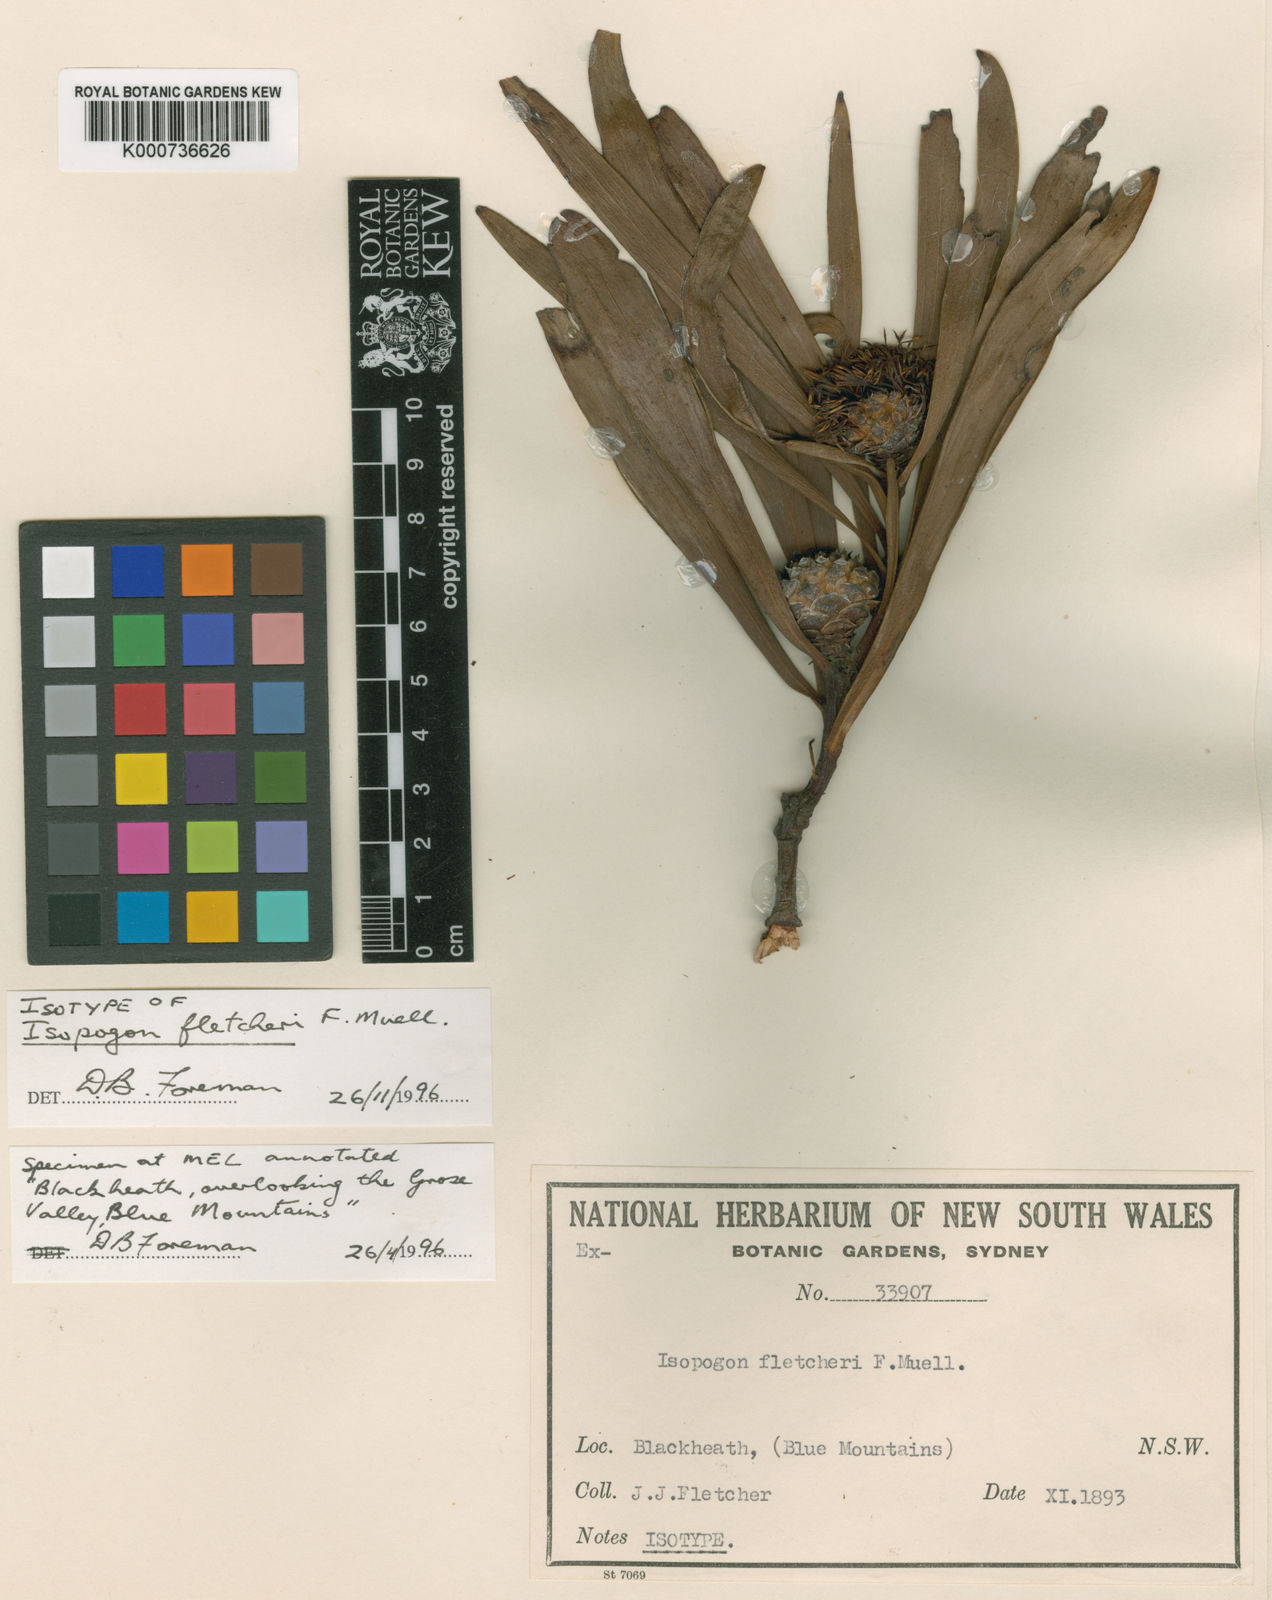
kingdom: Plantae
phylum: Tracheophyta
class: Magnoliopsida
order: Proteales
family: Proteaceae
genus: Isopogon
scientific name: Isopogon fletcheri
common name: Fletcher’s drumsticks
